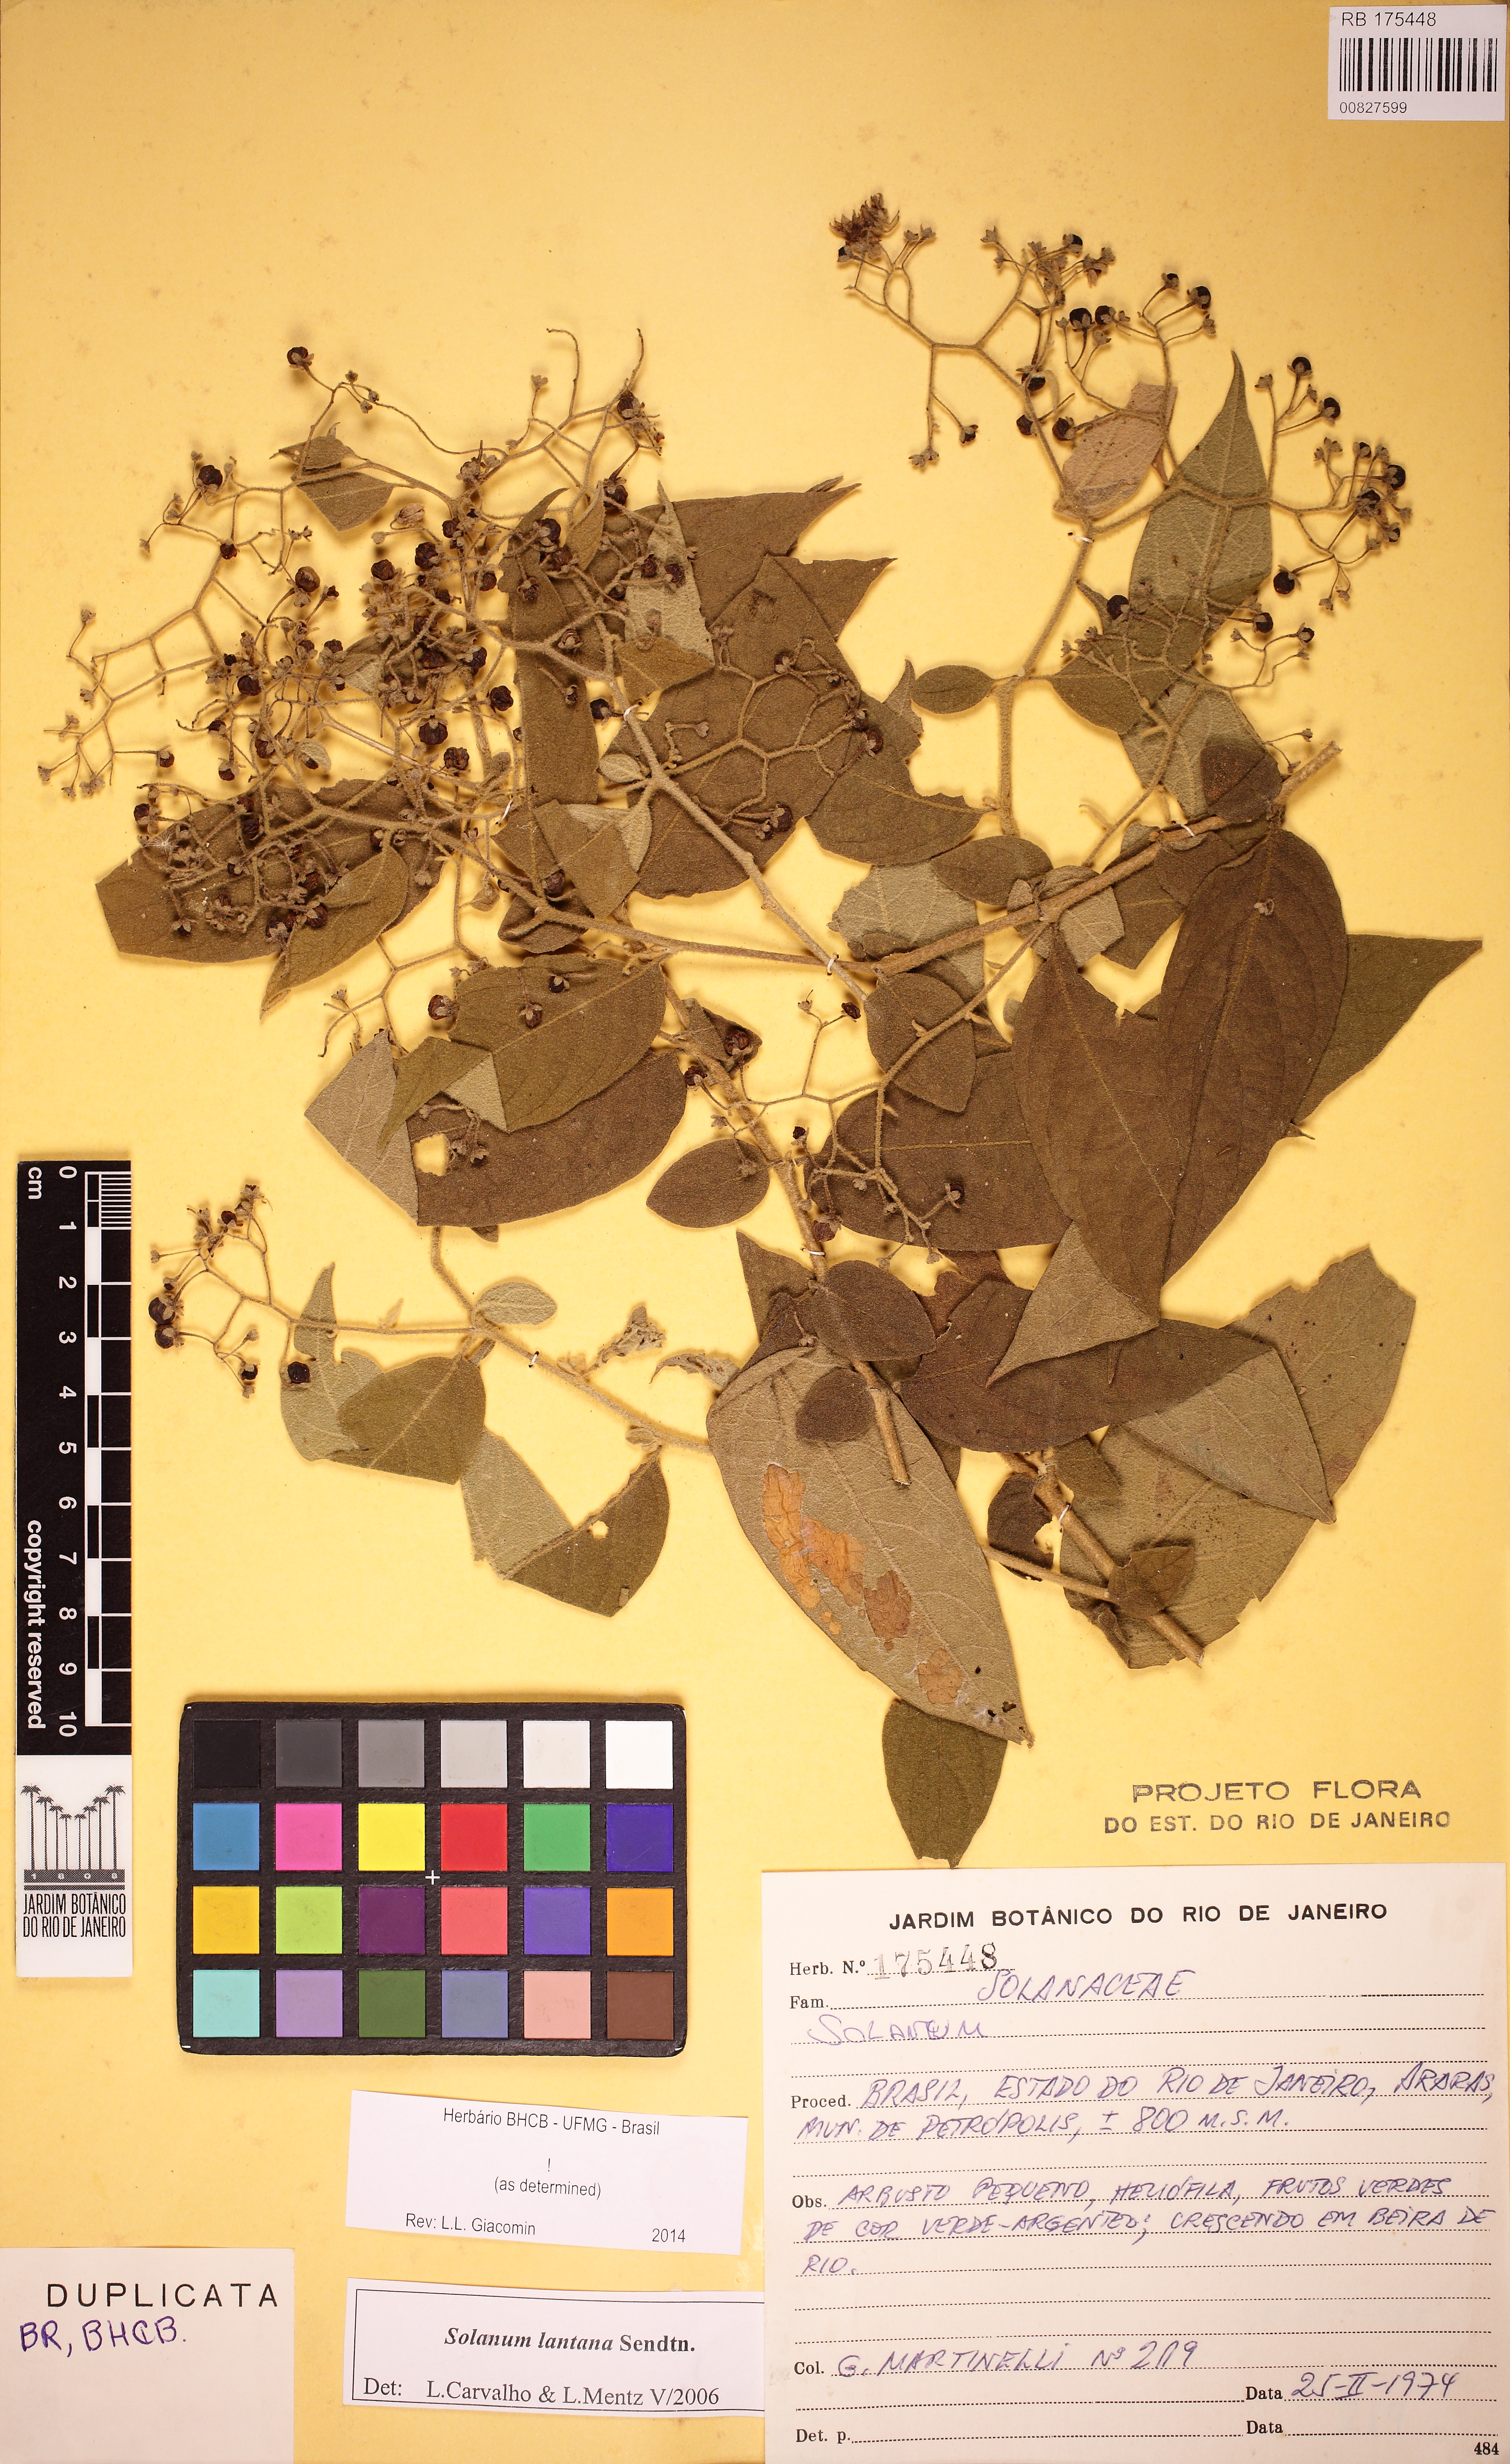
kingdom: Plantae
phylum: Tracheophyta
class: Magnoliopsida
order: Solanales
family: Solanaceae
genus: Solanum
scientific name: Solanum lantana
